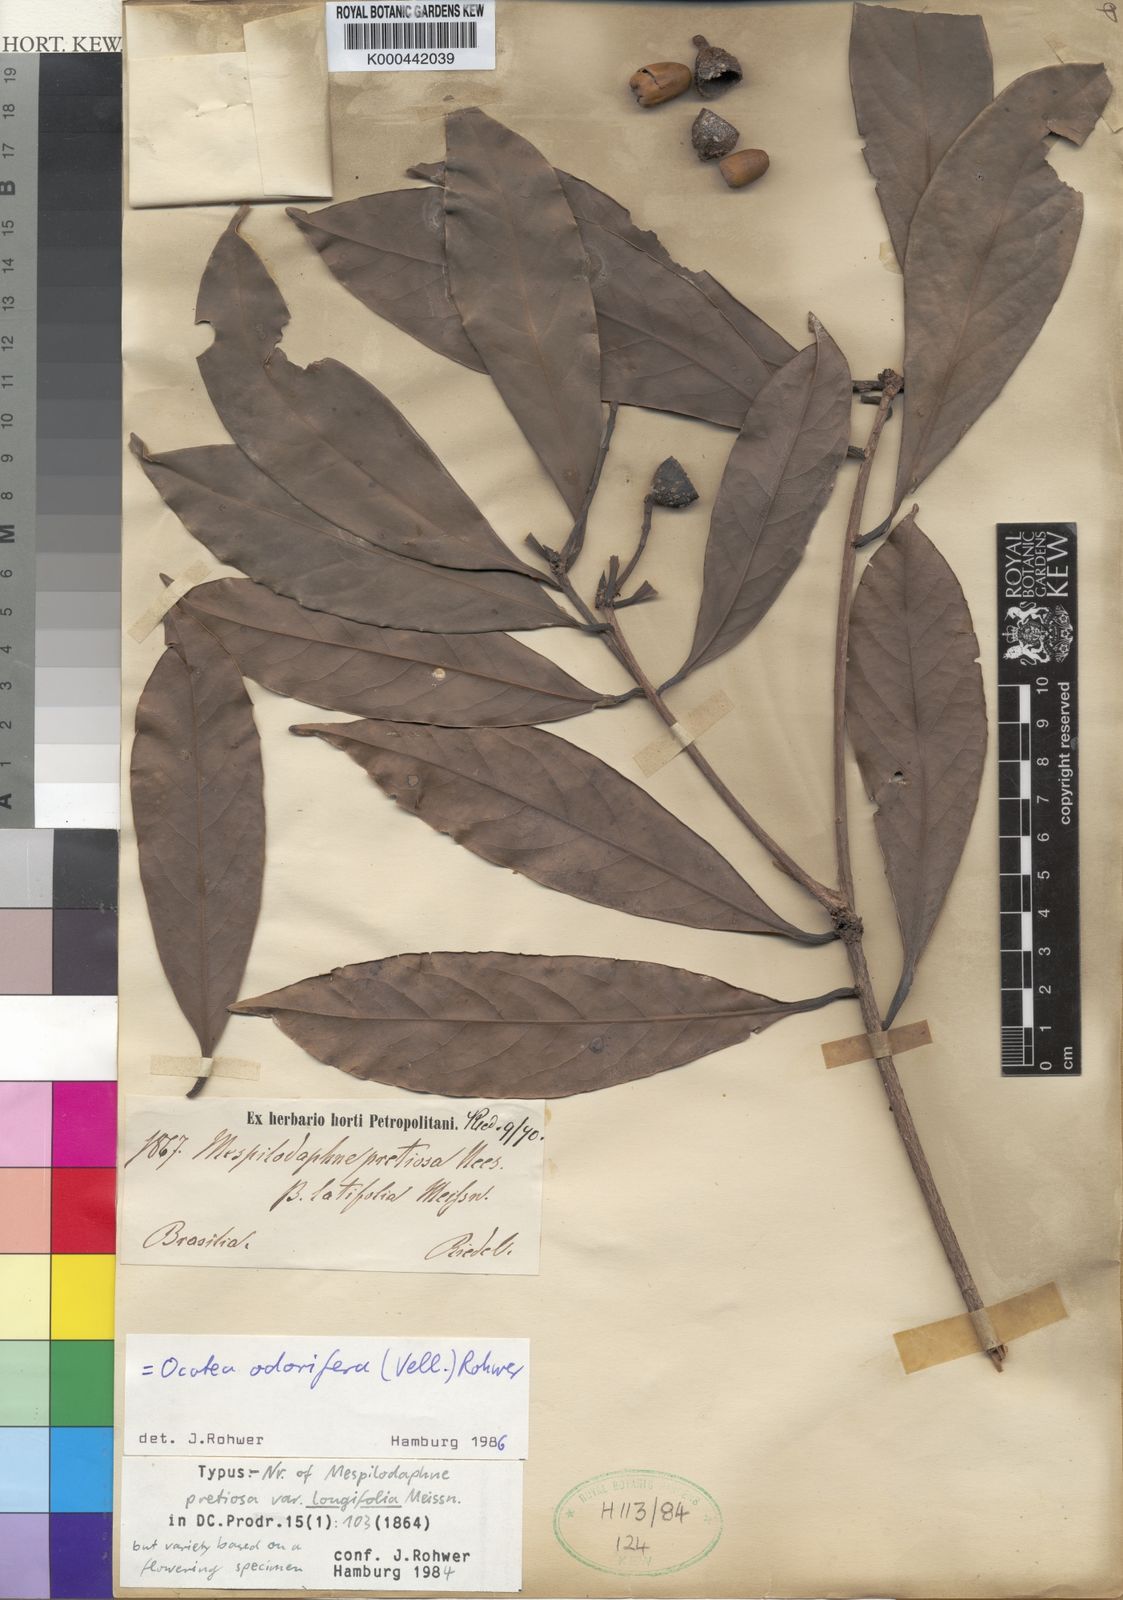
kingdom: Plantae
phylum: Tracheophyta
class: Magnoliopsida
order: Laurales
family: Lauraceae
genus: Mespilodaphne
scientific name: Mespilodaphne quixos
